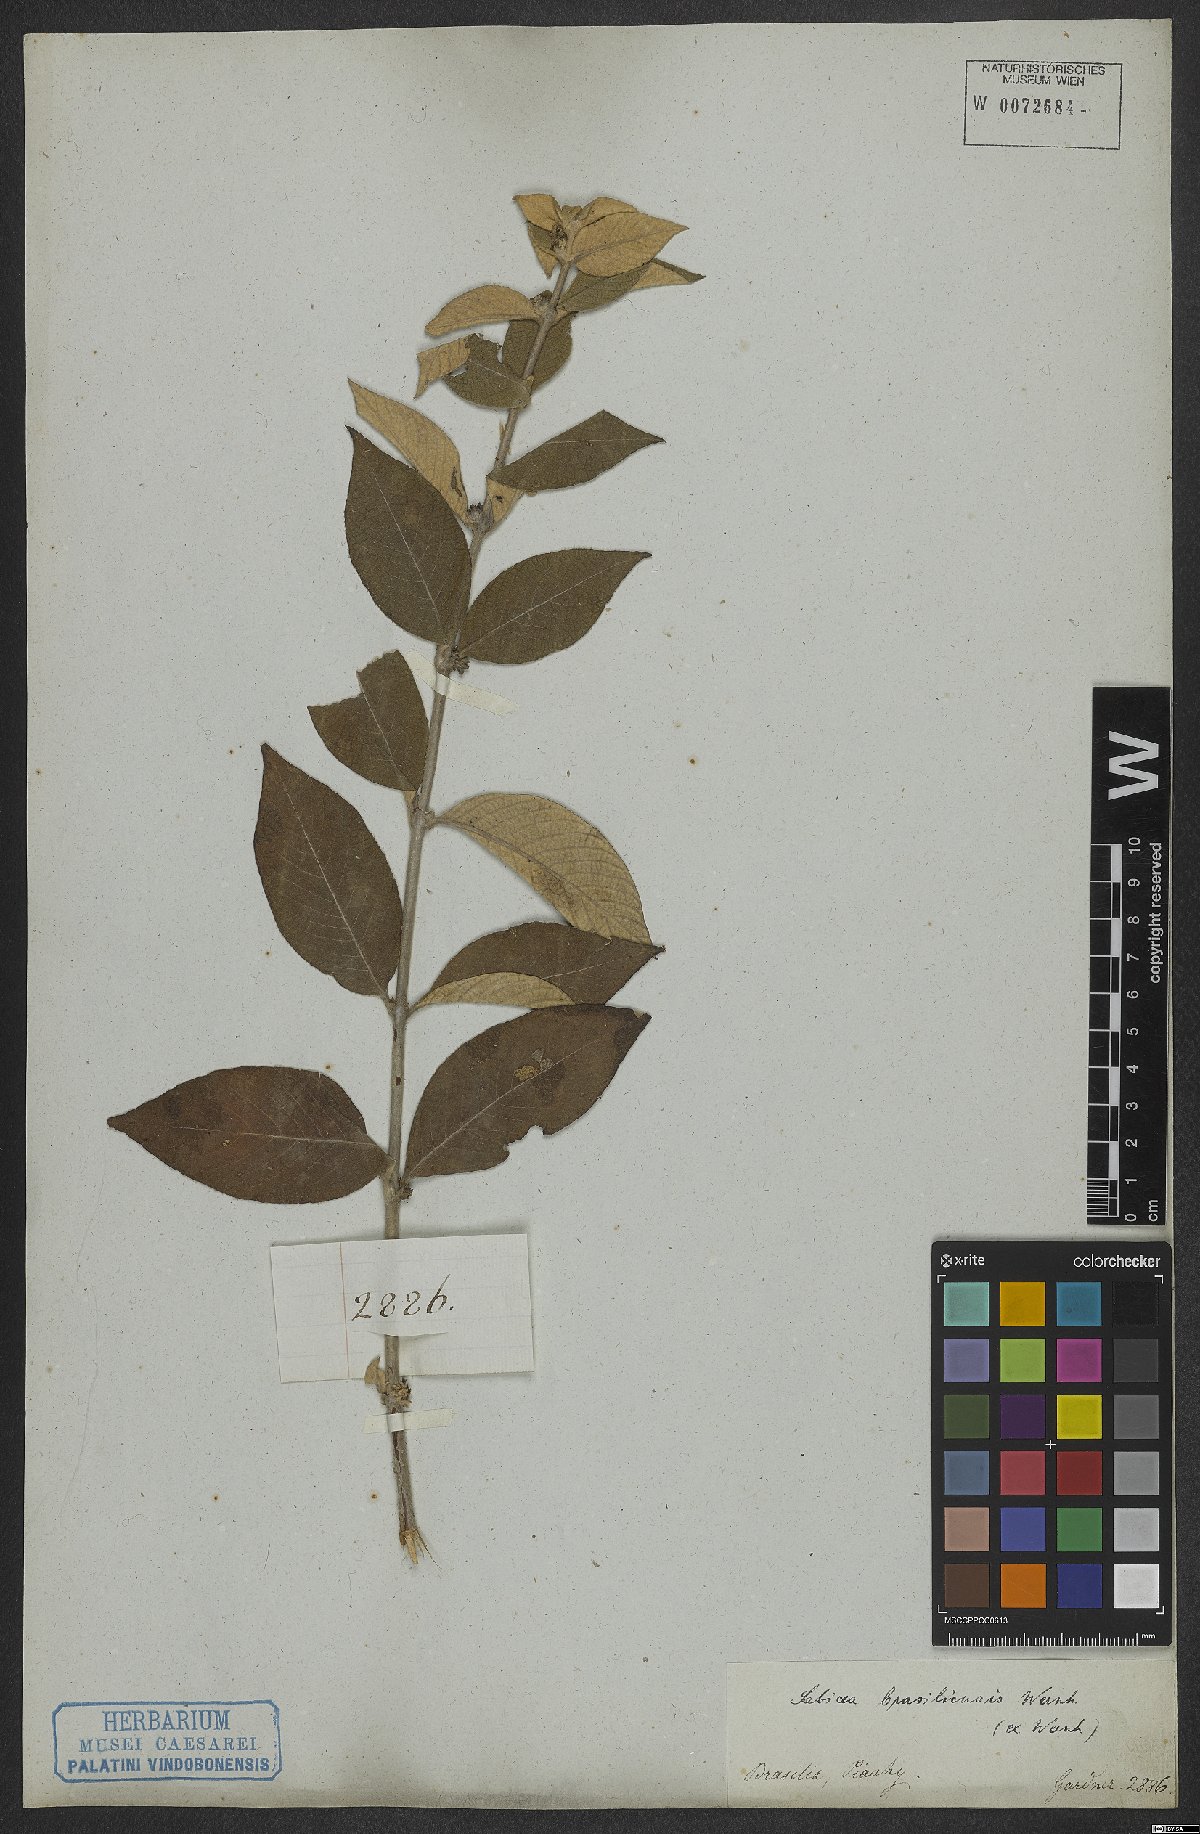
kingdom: Plantae
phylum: Tracheophyta
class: Magnoliopsida
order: Gentianales
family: Rubiaceae
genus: Sabicea
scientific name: Sabicea brasiliensis
